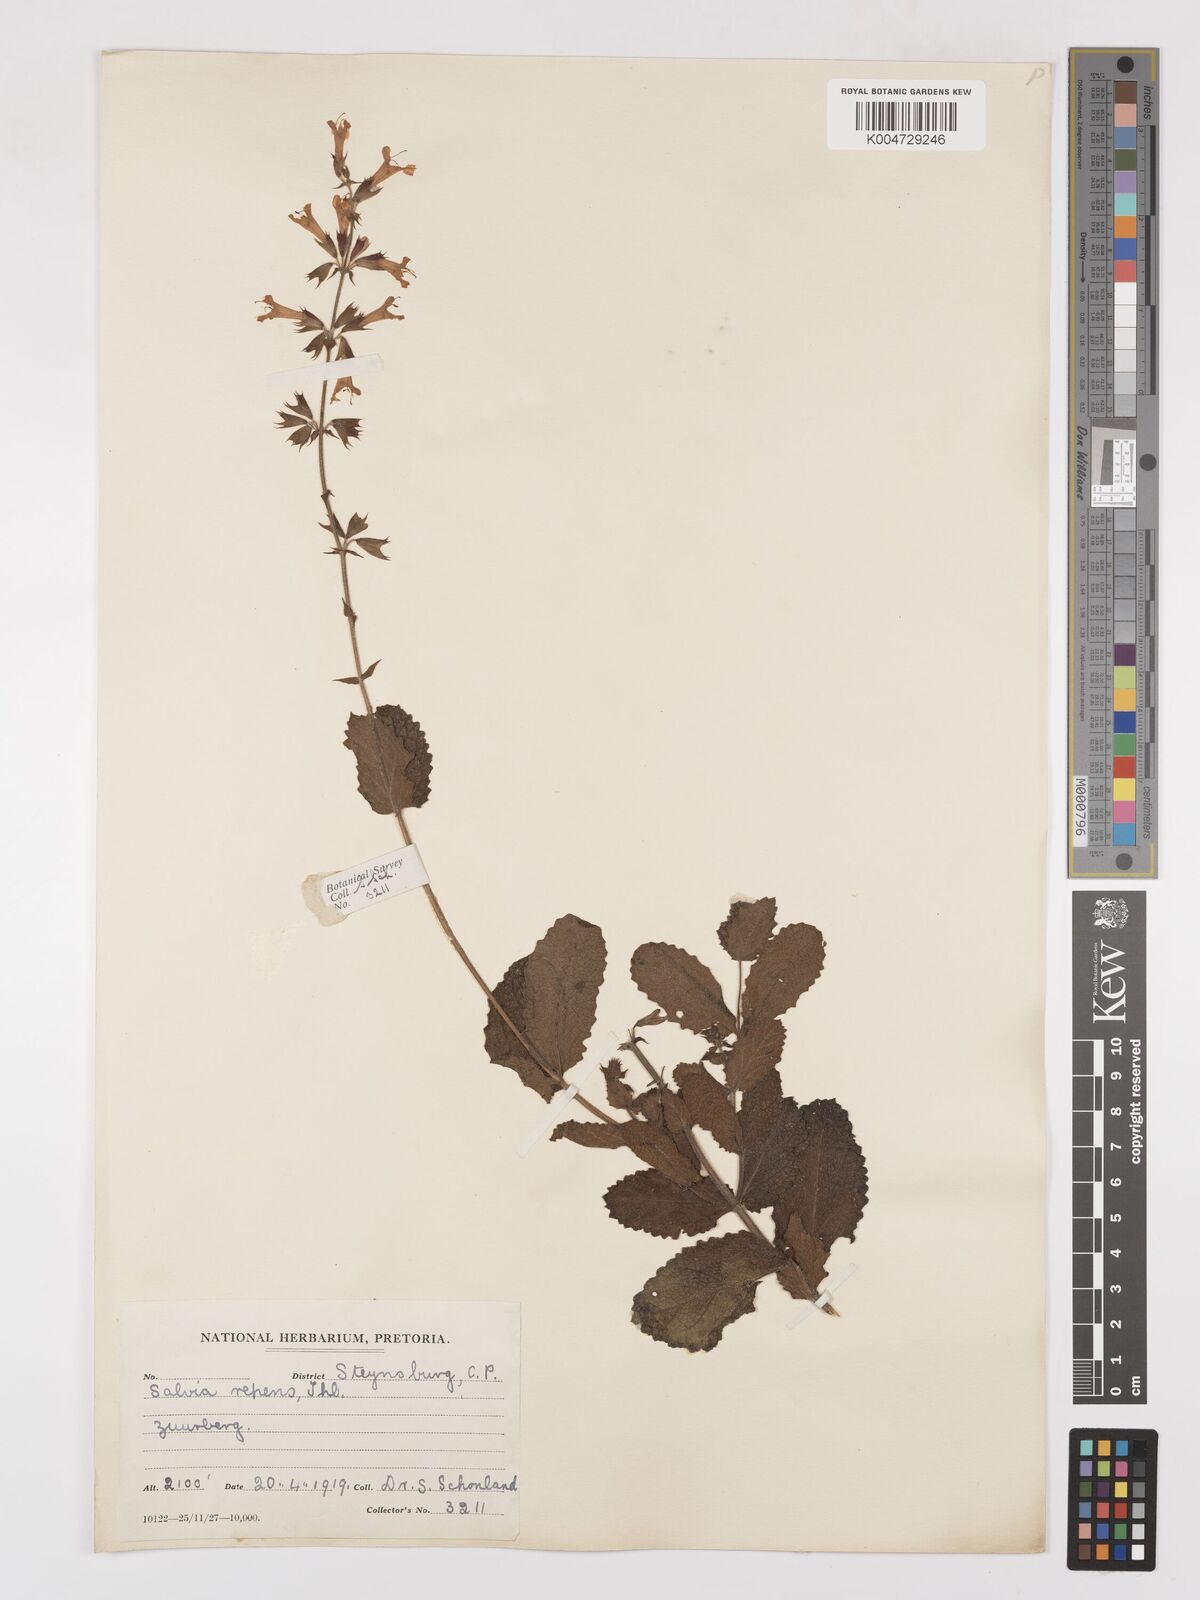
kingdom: Plantae
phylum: Tracheophyta
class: Magnoliopsida
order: Lamiales
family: Lamiaceae
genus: Salvia
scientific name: Salvia repens
